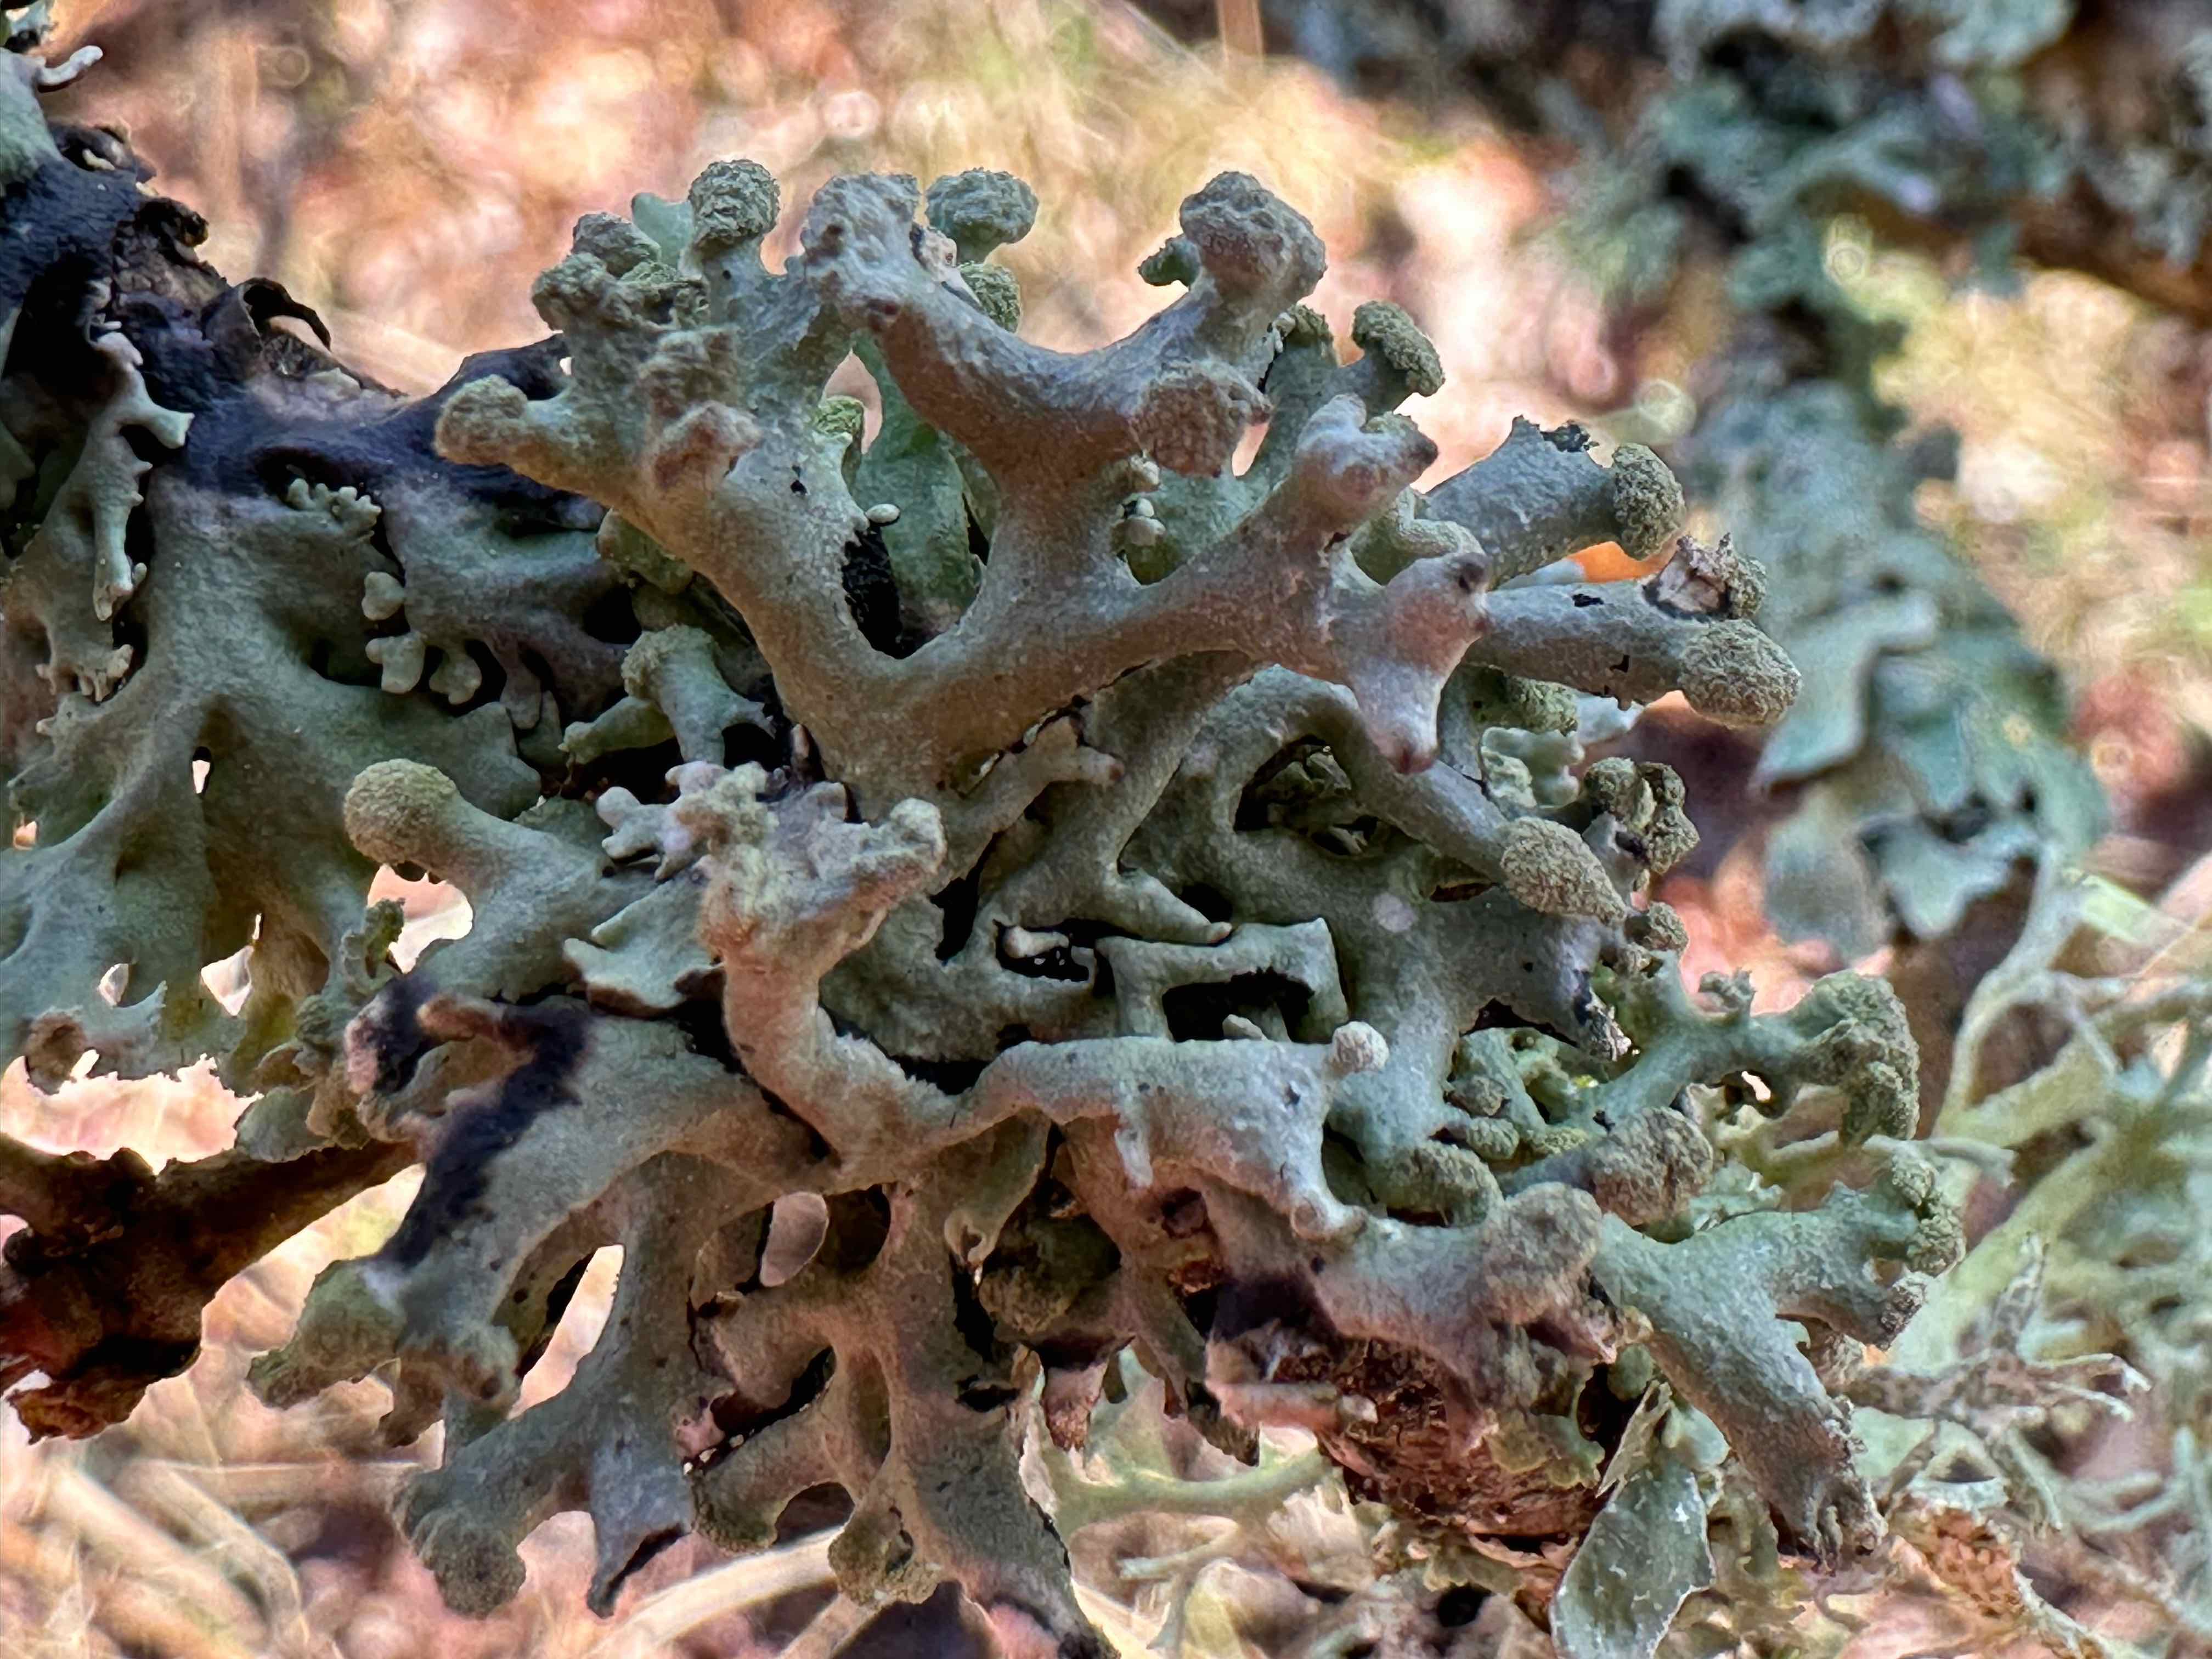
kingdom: Fungi
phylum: Ascomycota
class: Lecanoromycetes
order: Lecanorales
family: Parmeliaceae
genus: Hypogymnia
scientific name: Hypogymnia tubulosa
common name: finger-kvistlav
